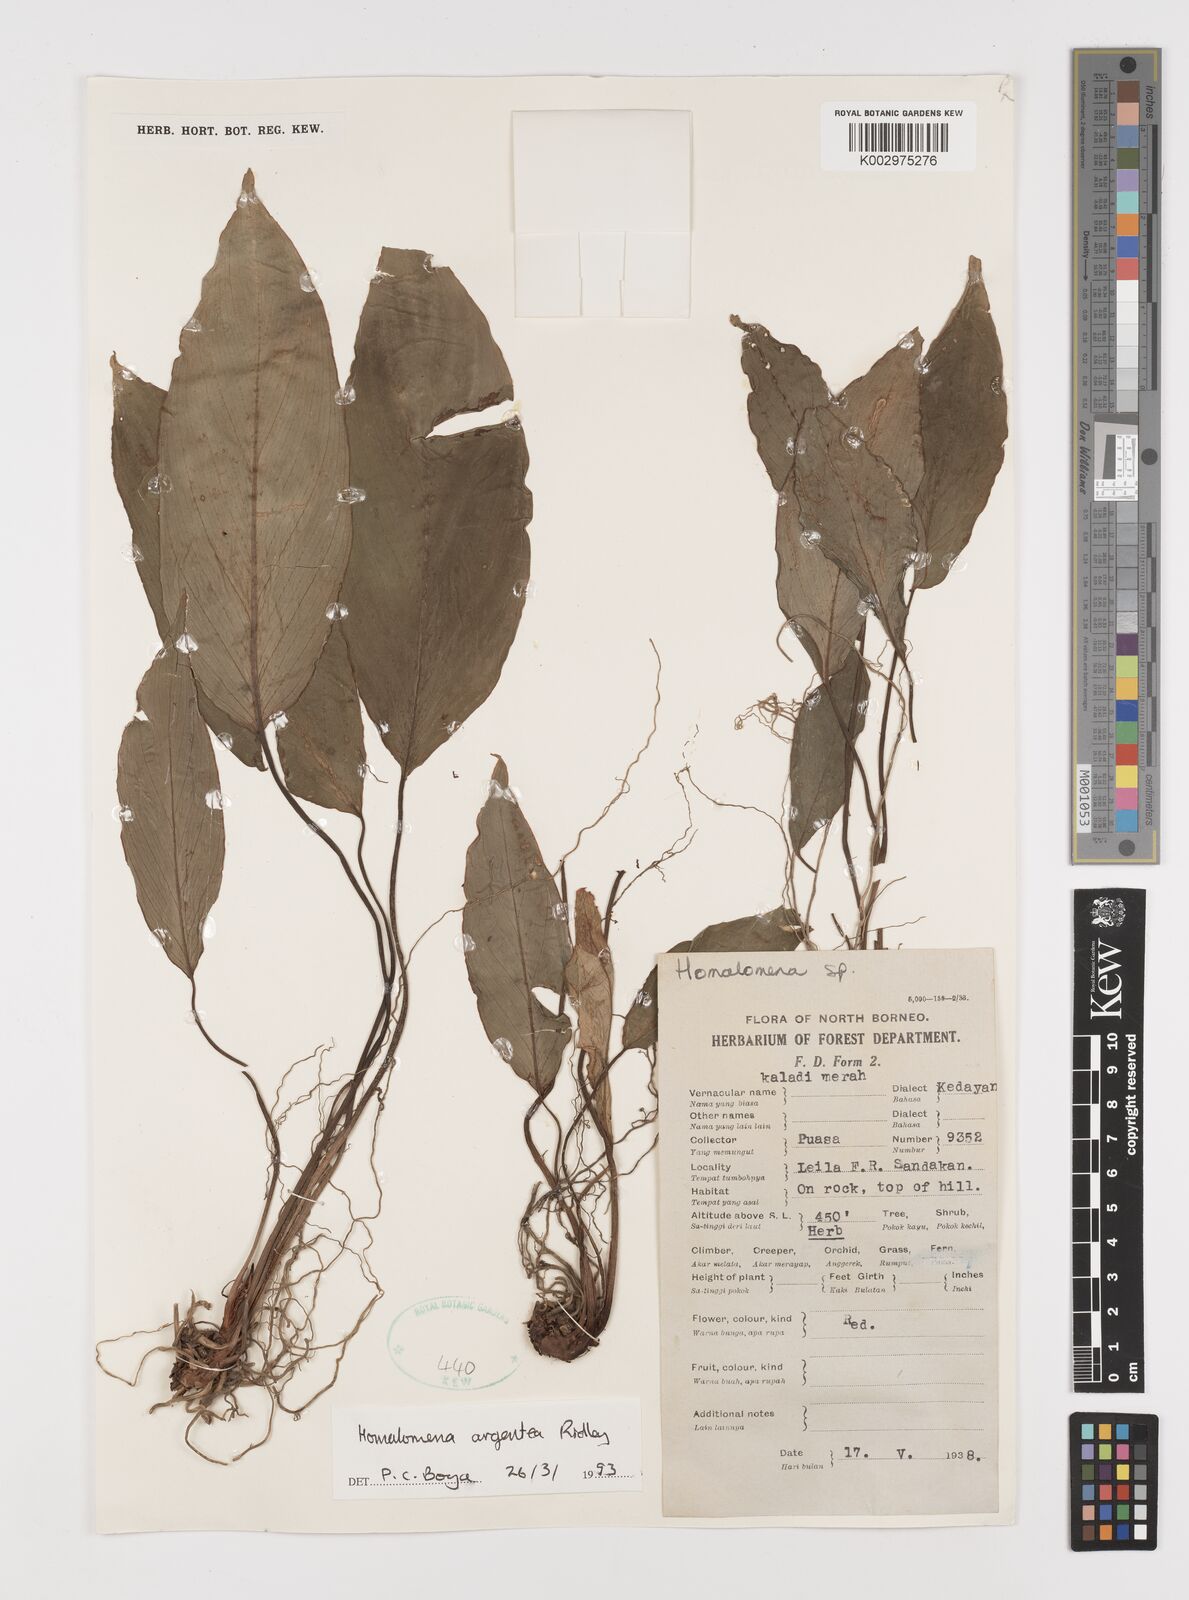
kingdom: Plantae
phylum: Tracheophyta
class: Liliopsida
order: Alismatales
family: Araceae
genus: Homalomena
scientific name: Homalomena argentea
